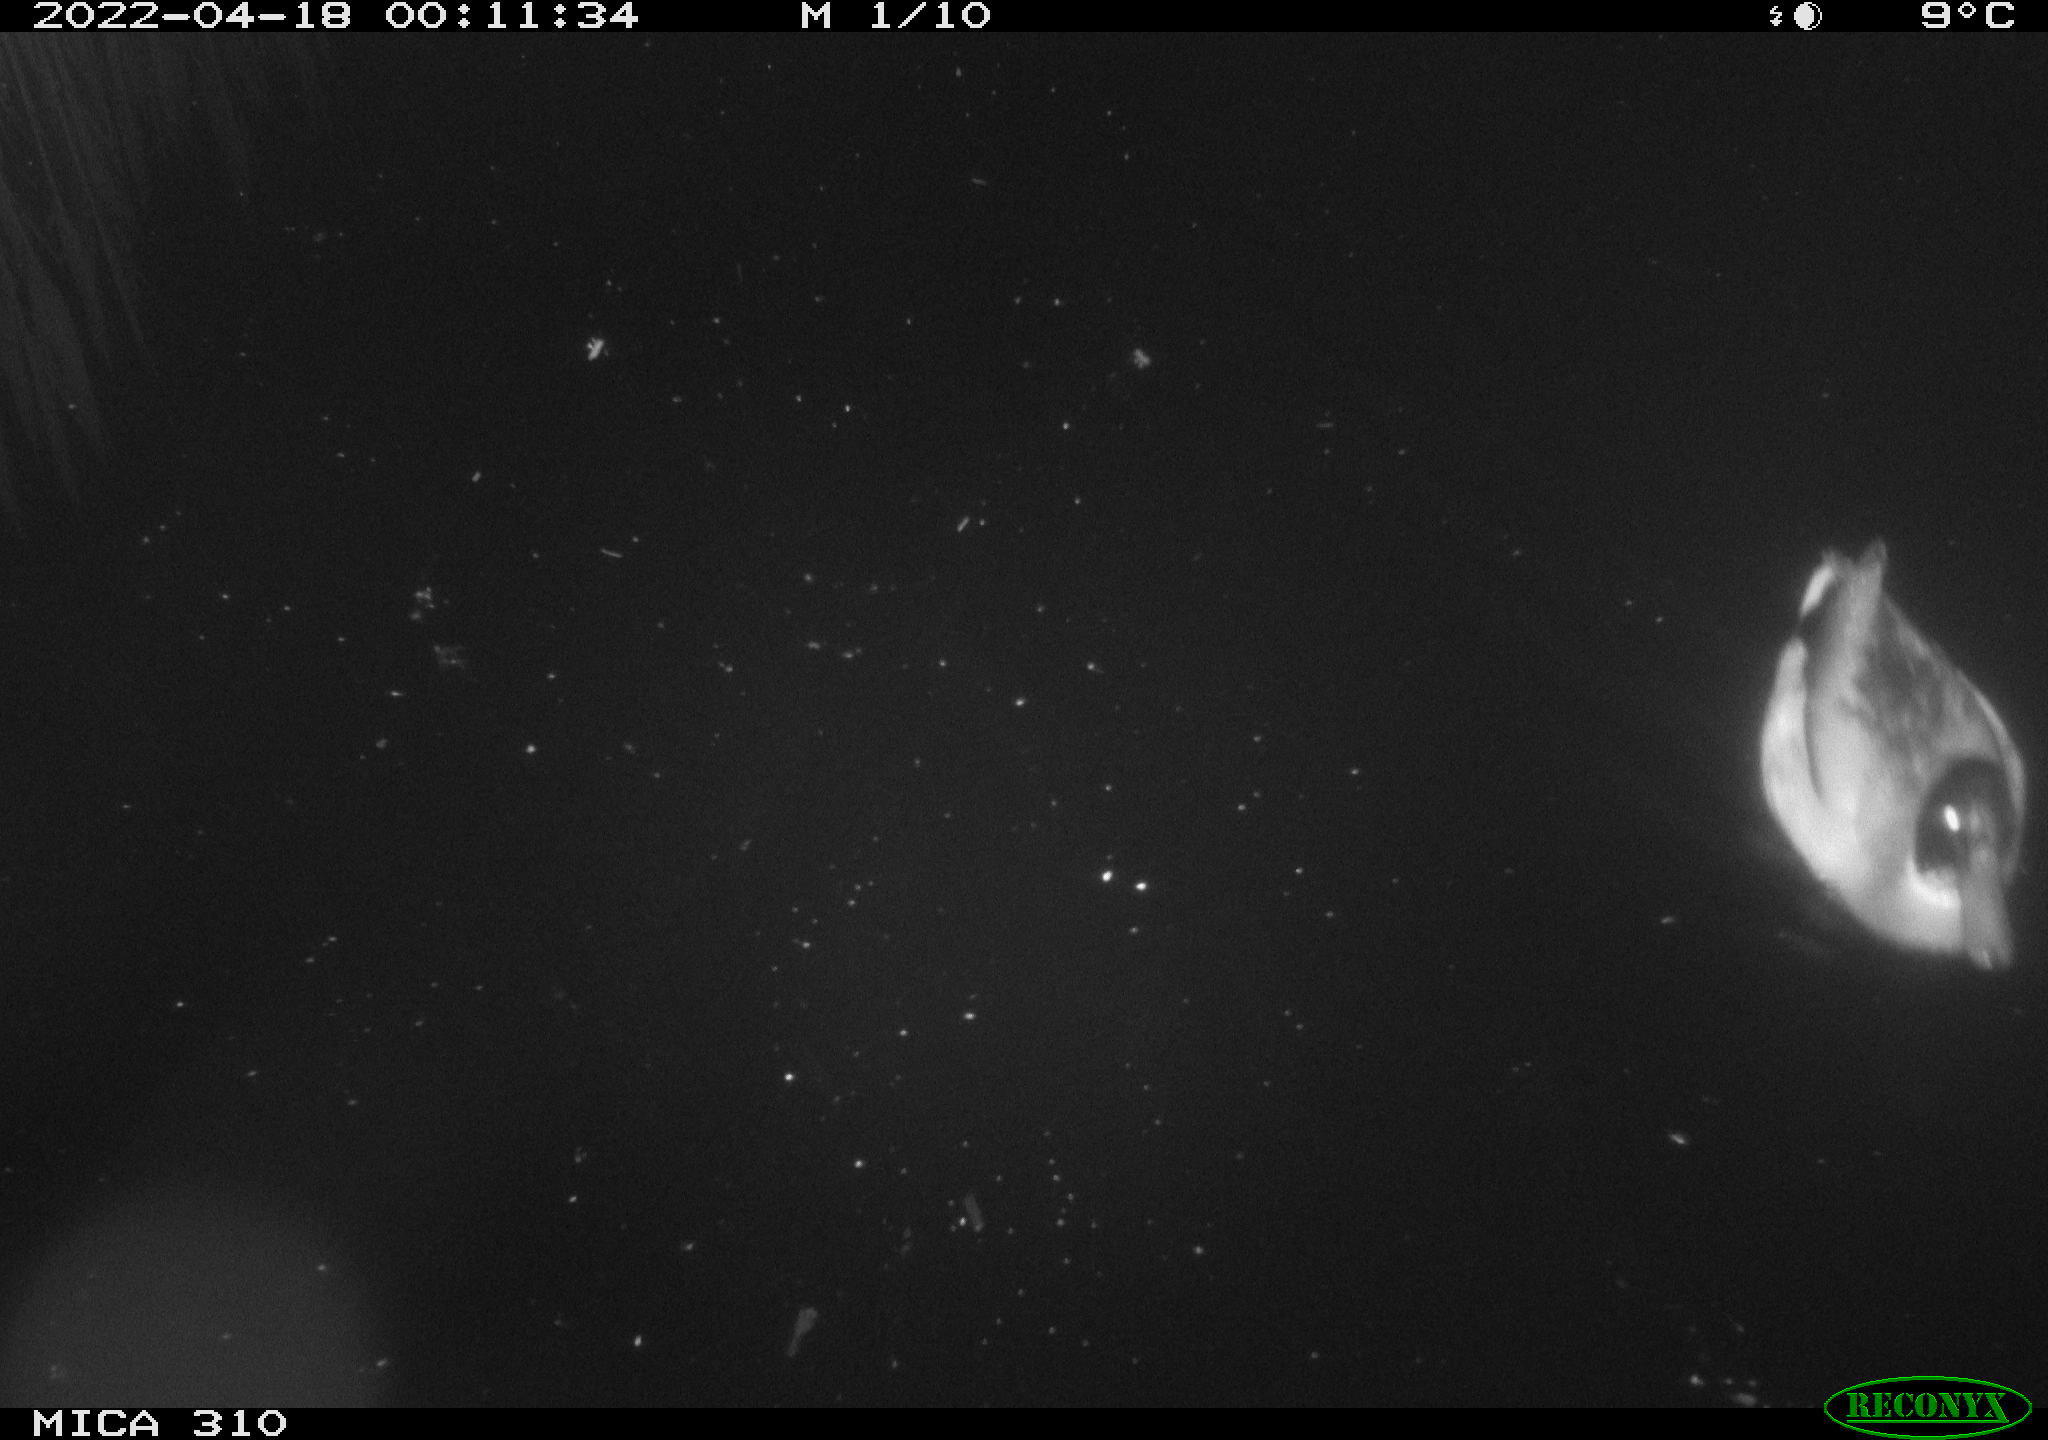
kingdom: Animalia
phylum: Chordata
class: Aves
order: Anseriformes
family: Anatidae
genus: Anas
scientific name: Anas platyrhynchos
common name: Mallard
